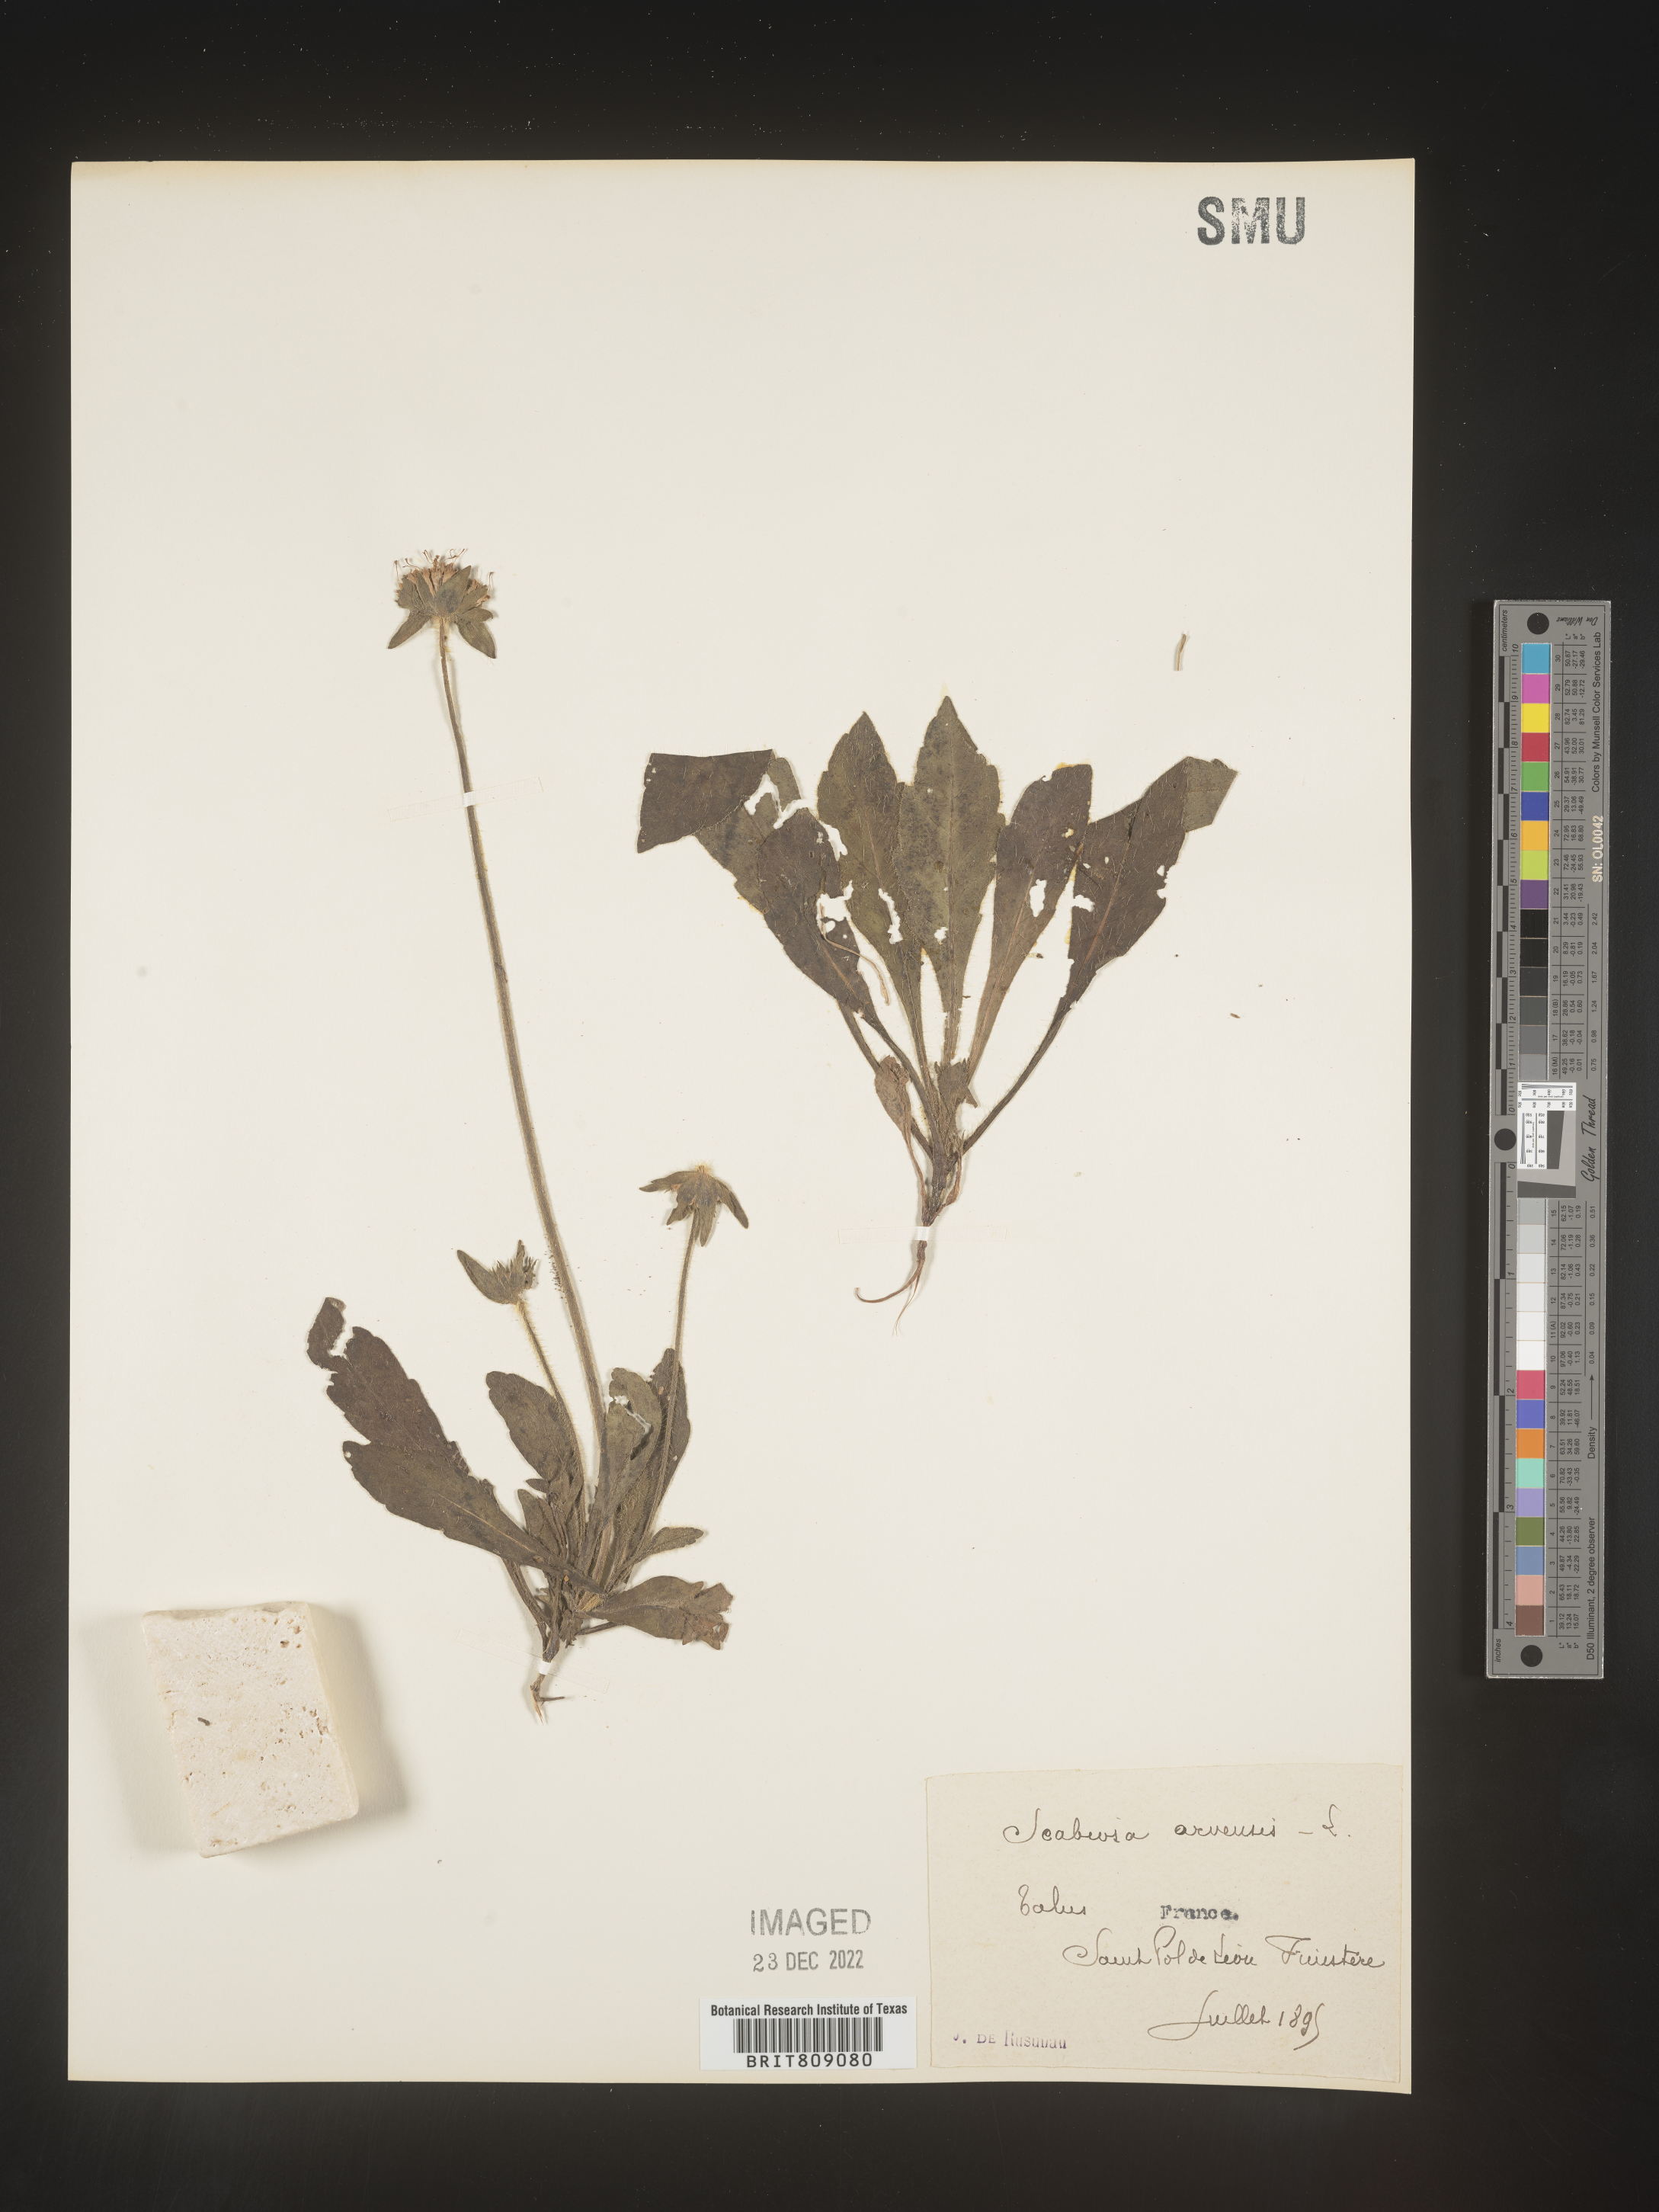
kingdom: Plantae
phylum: Tracheophyta
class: Magnoliopsida
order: Dipsacales
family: Caprifoliaceae
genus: Scabiosa
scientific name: Scabiosa
